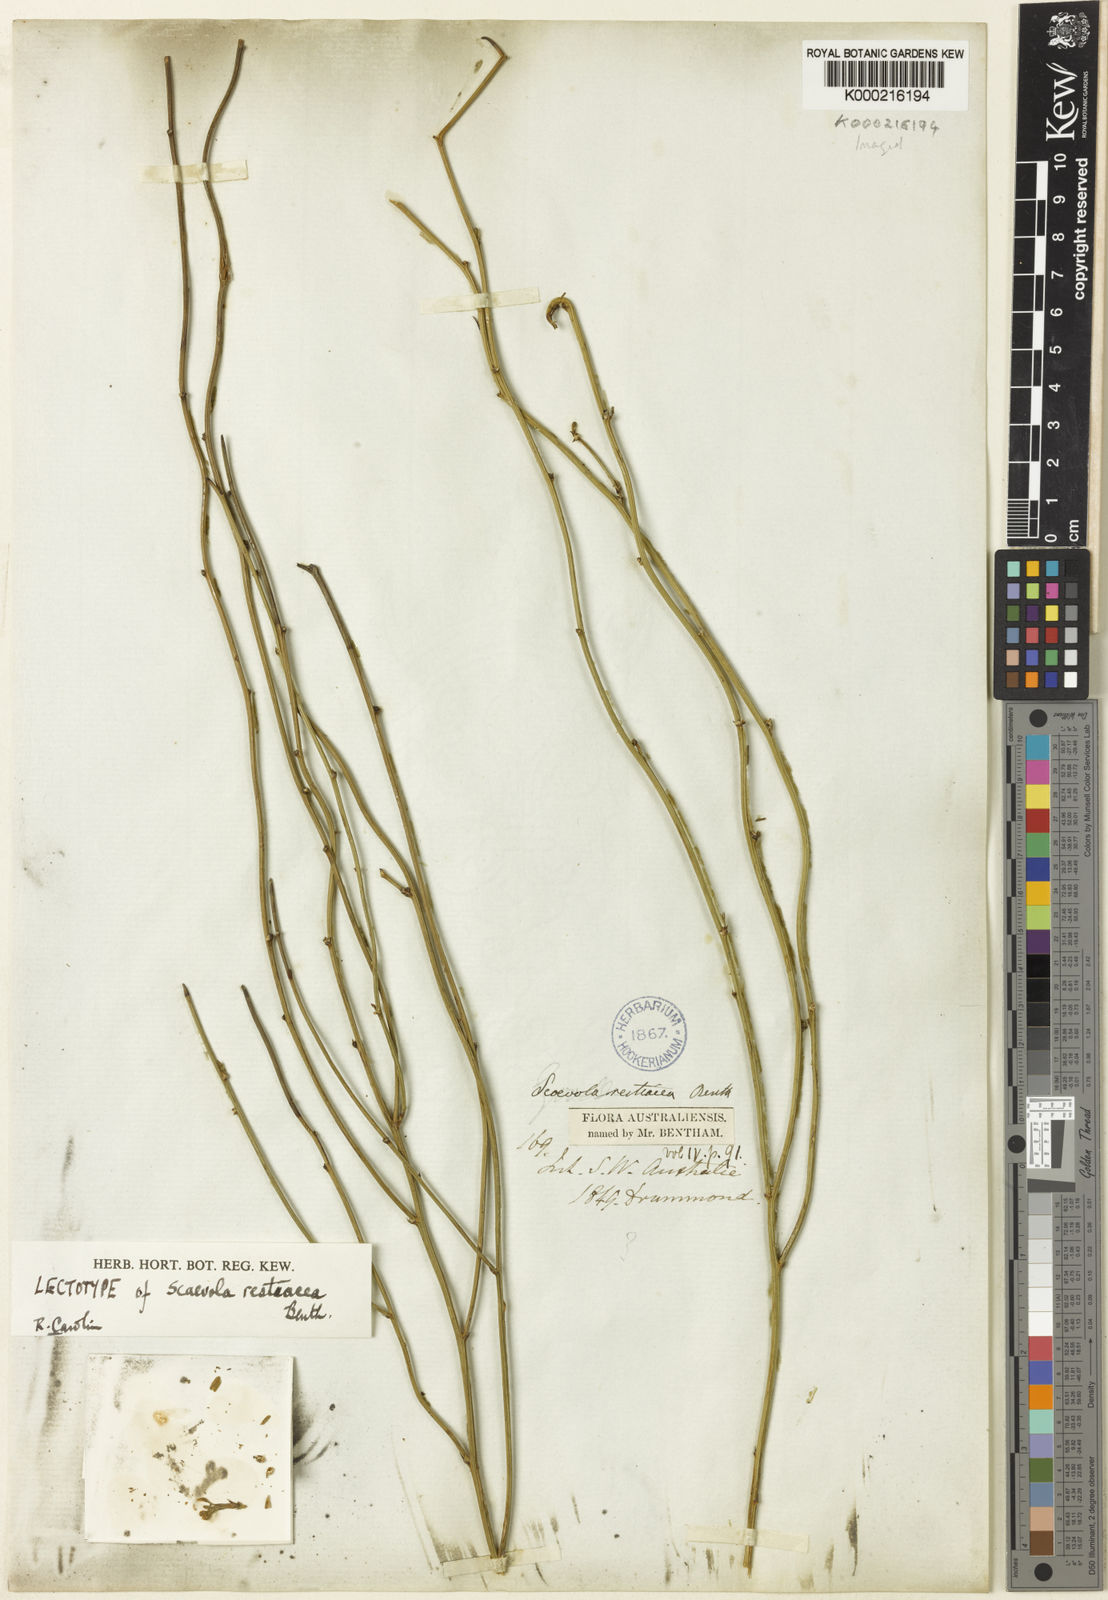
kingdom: Plantae
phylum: Tracheophyta
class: Magnoliopsida
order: Asterales
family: Goodeniaceae
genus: Scaevola
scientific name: Scaevola restiacea
